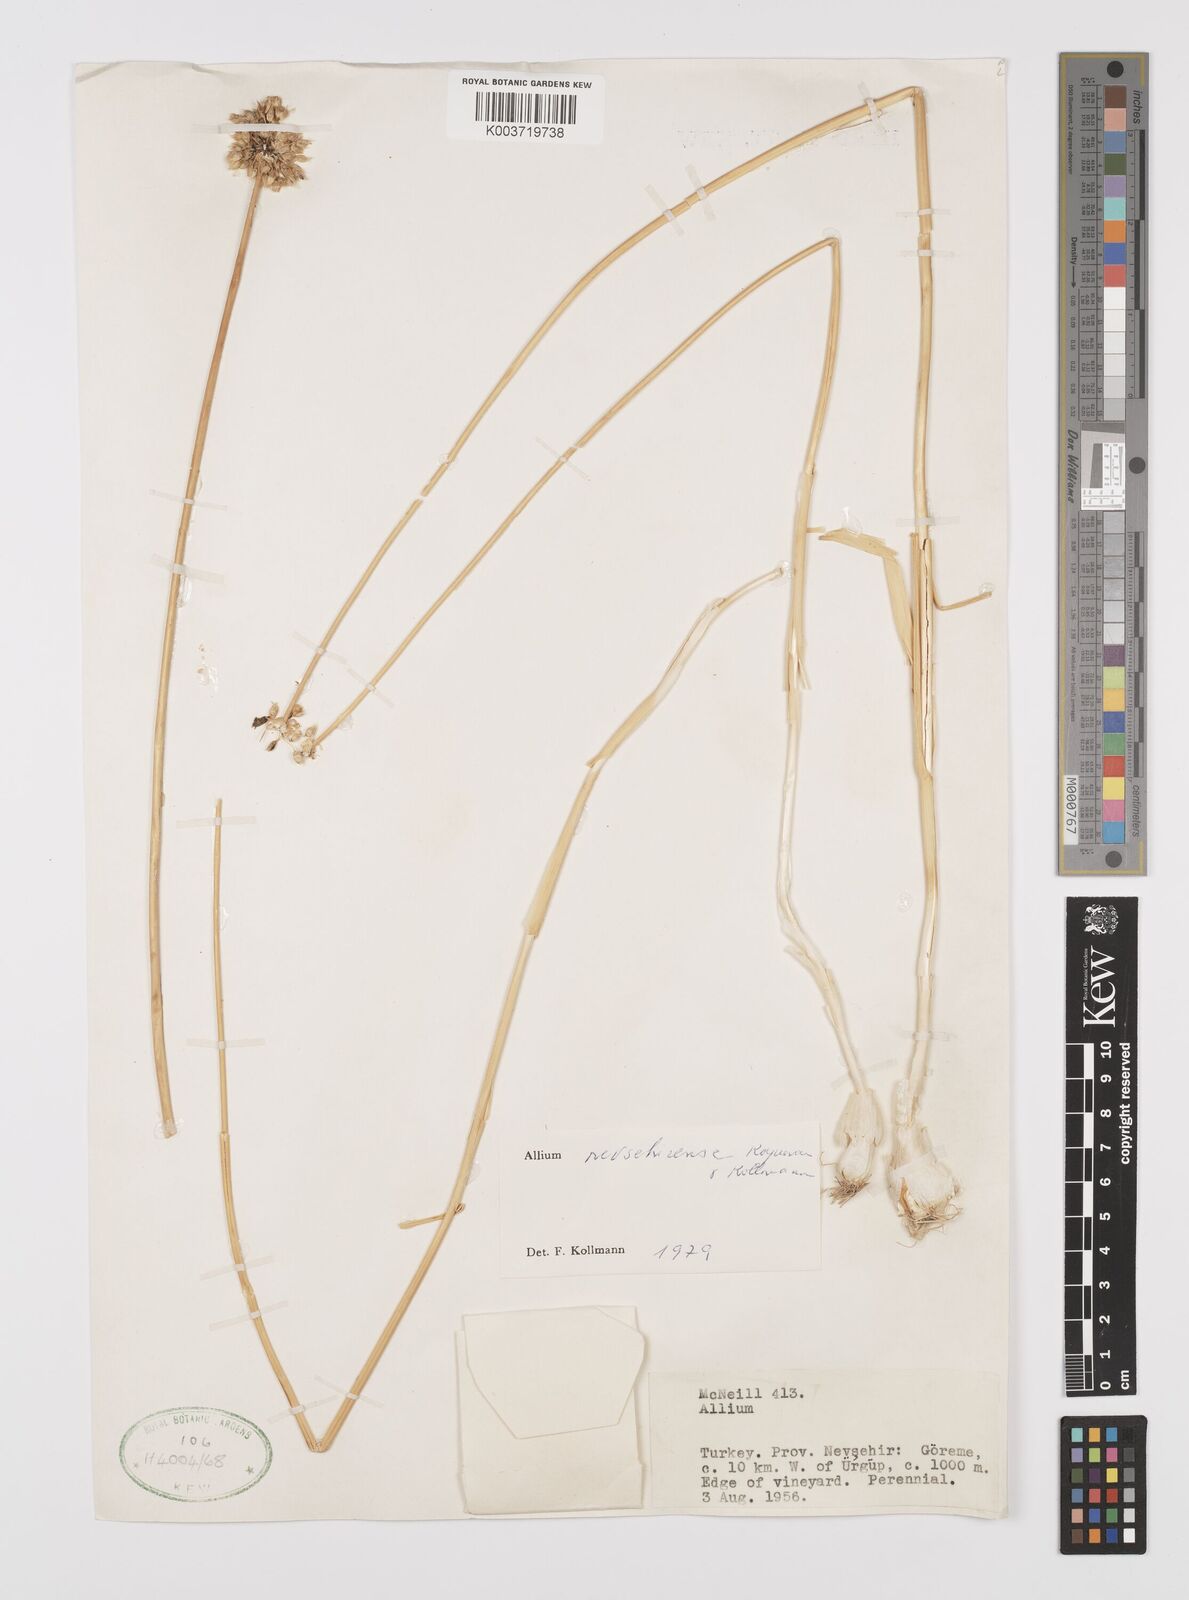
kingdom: Plantae
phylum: Tracheophyta
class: Liliopsida
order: Asparagales
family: Amaryllidaceae
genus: Allium
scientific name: Allium nevsehirense
